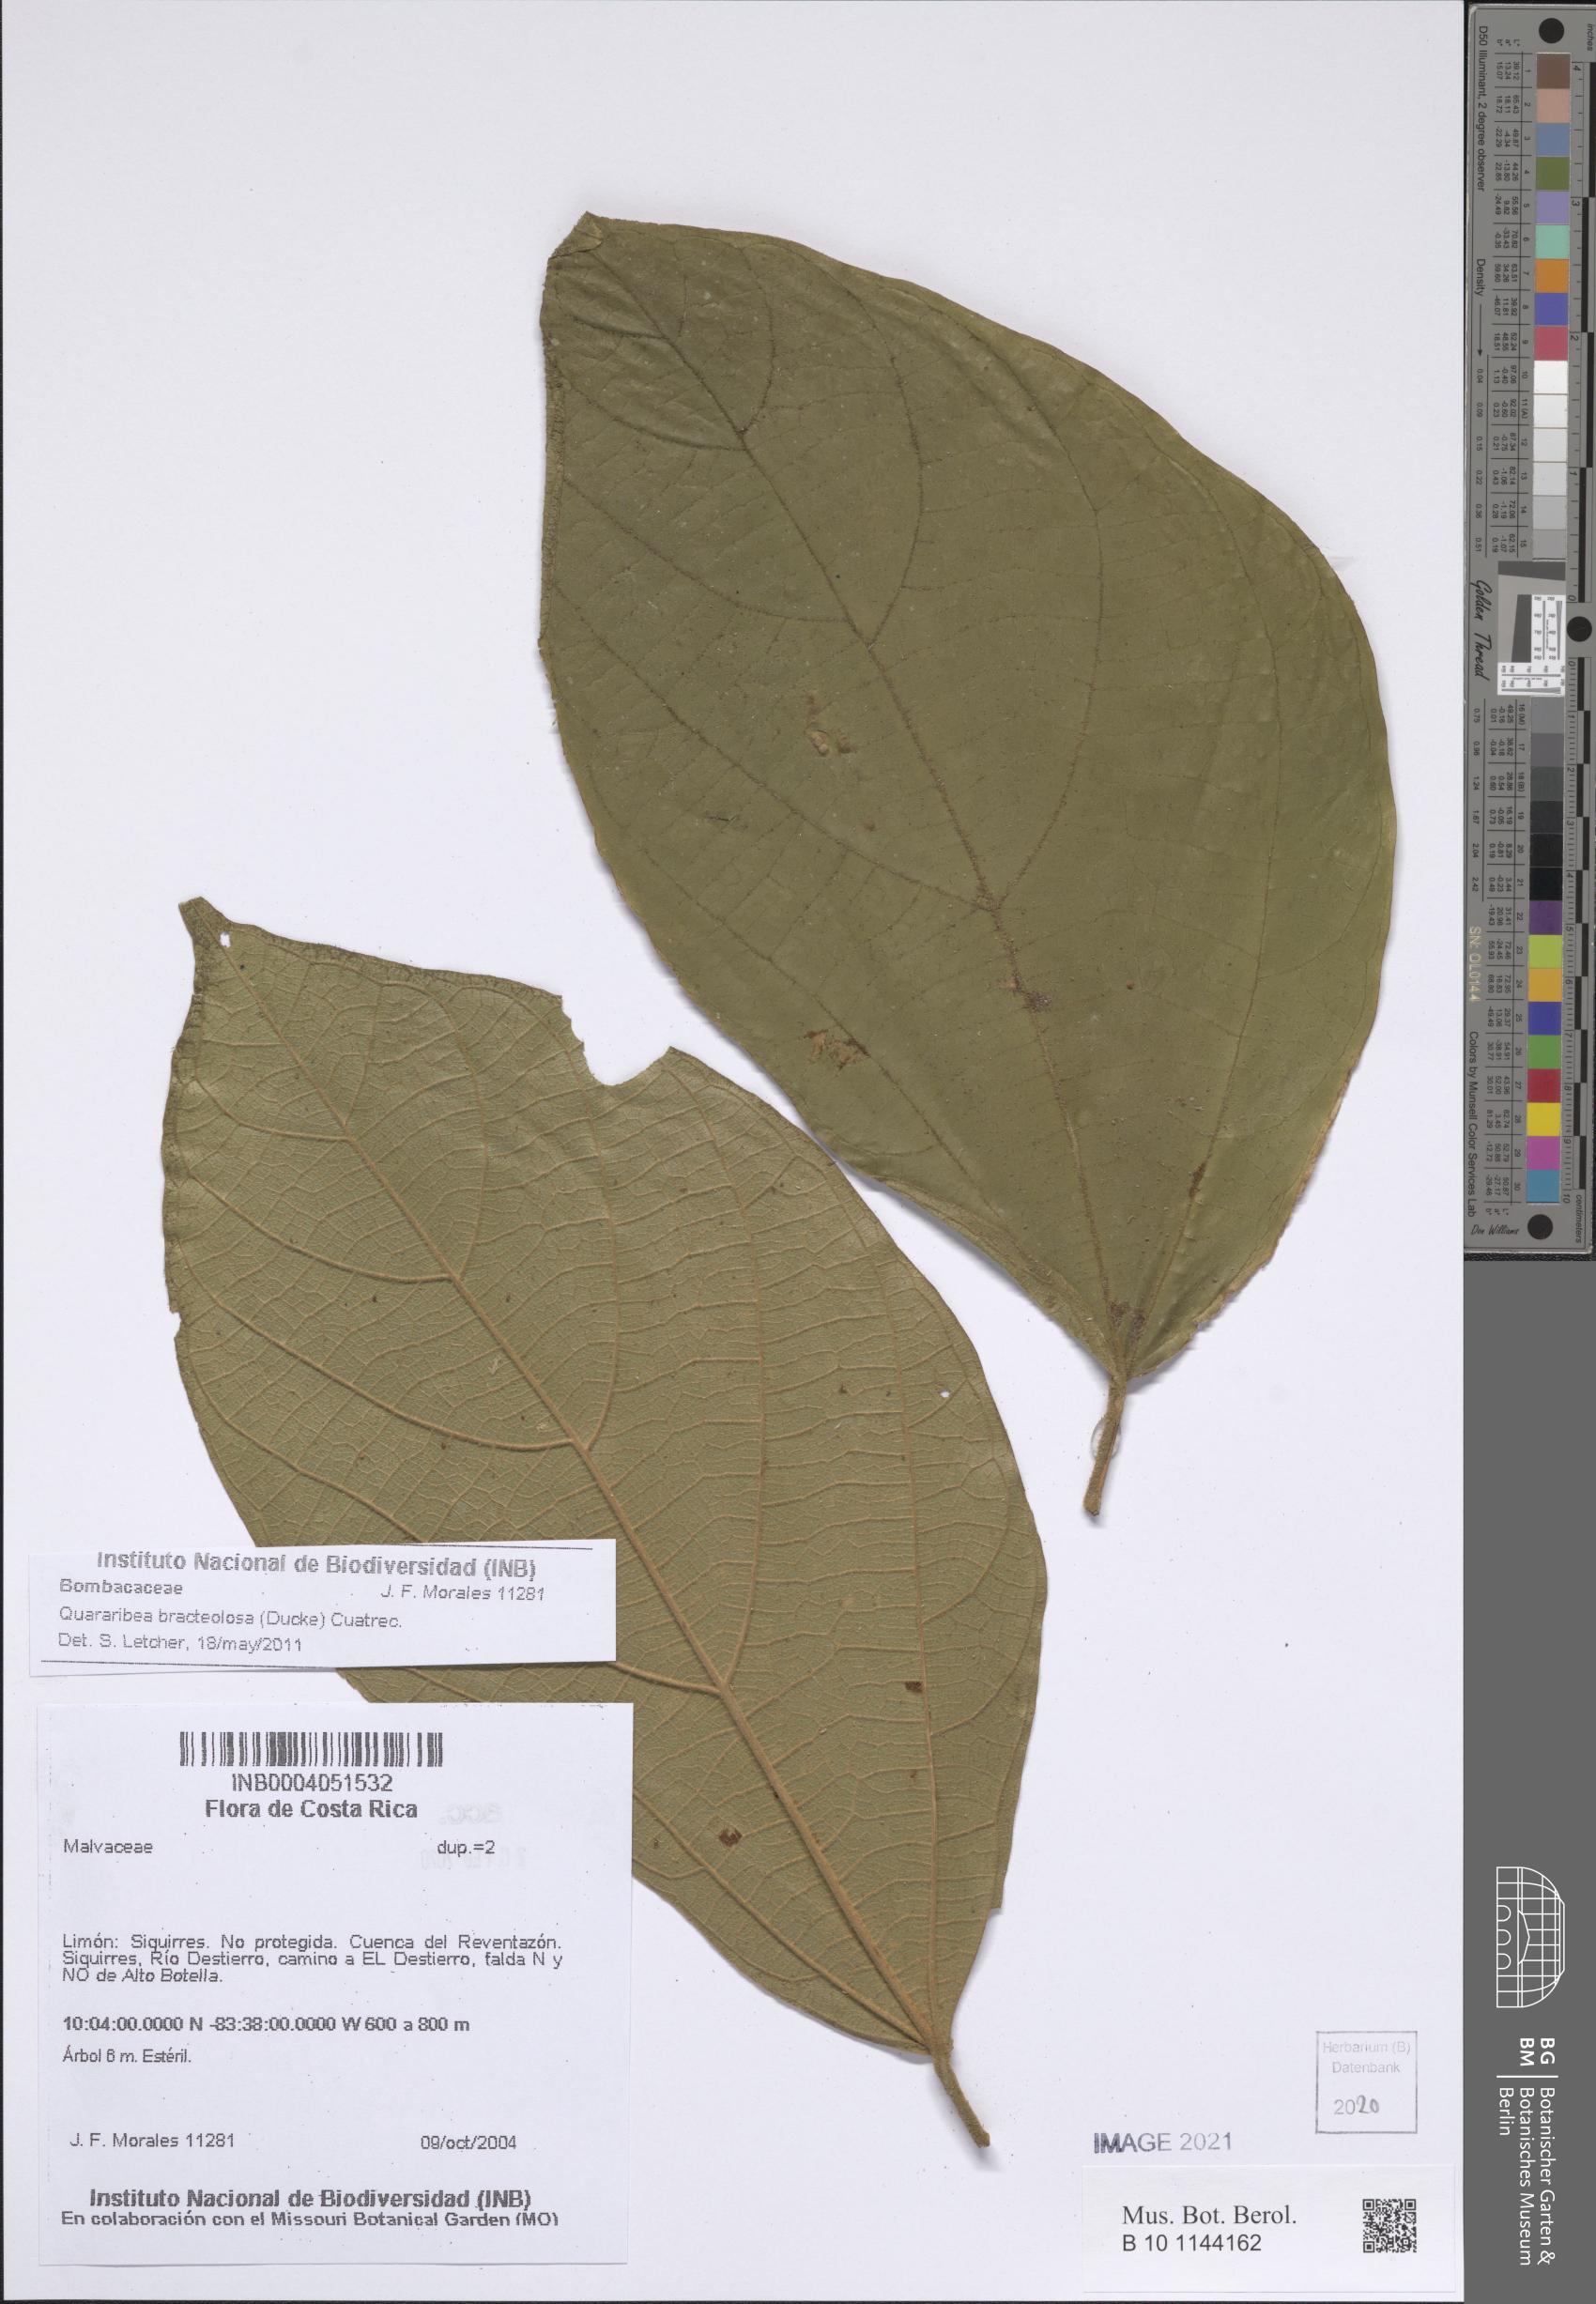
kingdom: Plantae
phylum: Tracheophyta
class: Magnoliopsida
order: Malvales
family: Malvaceae
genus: Matisia
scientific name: Matisia bracteolosa
